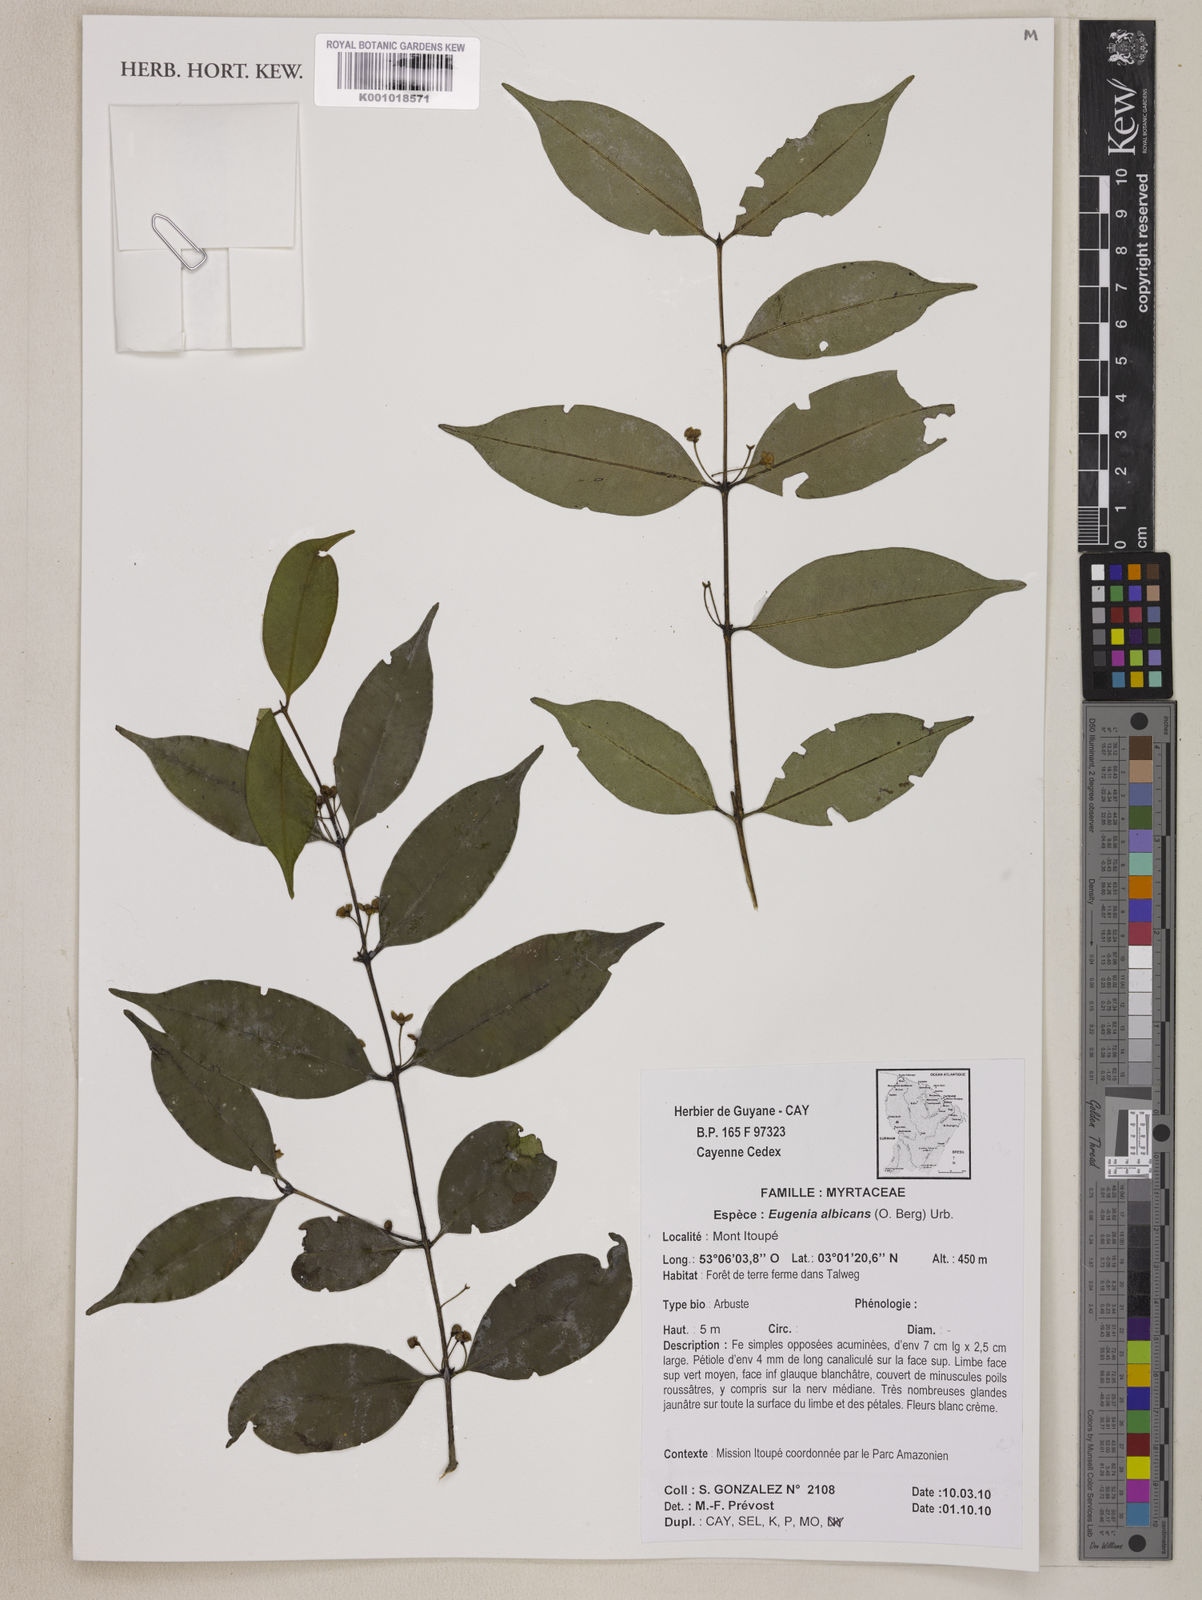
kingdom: Plantae
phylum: Tracheophyta
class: Magnoliopsida
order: Myrtales
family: Myrtaceae
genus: Eugenia
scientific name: Eugenia albicans
